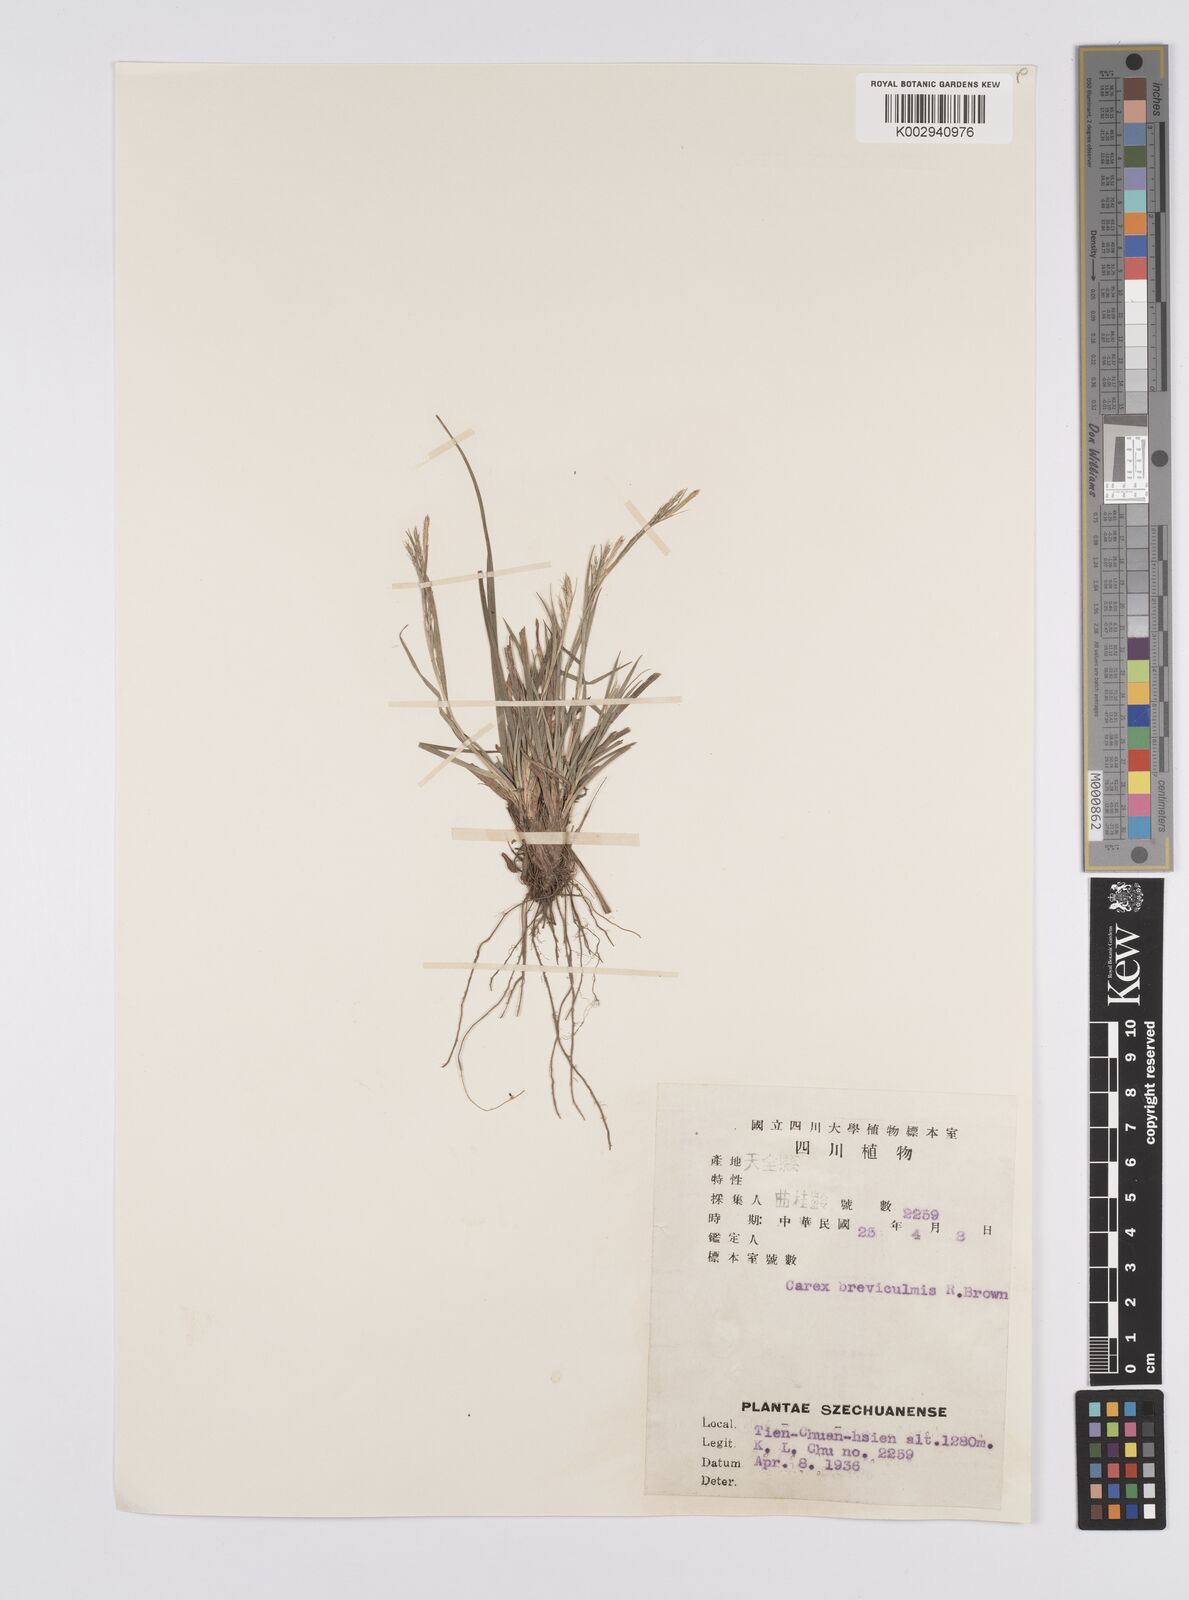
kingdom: Plantae
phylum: Tracheophyta
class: Liliopsida
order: Poales
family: Cyperaceae
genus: Carex
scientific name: Carex breviculmis
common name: Asian shortstem sedge
